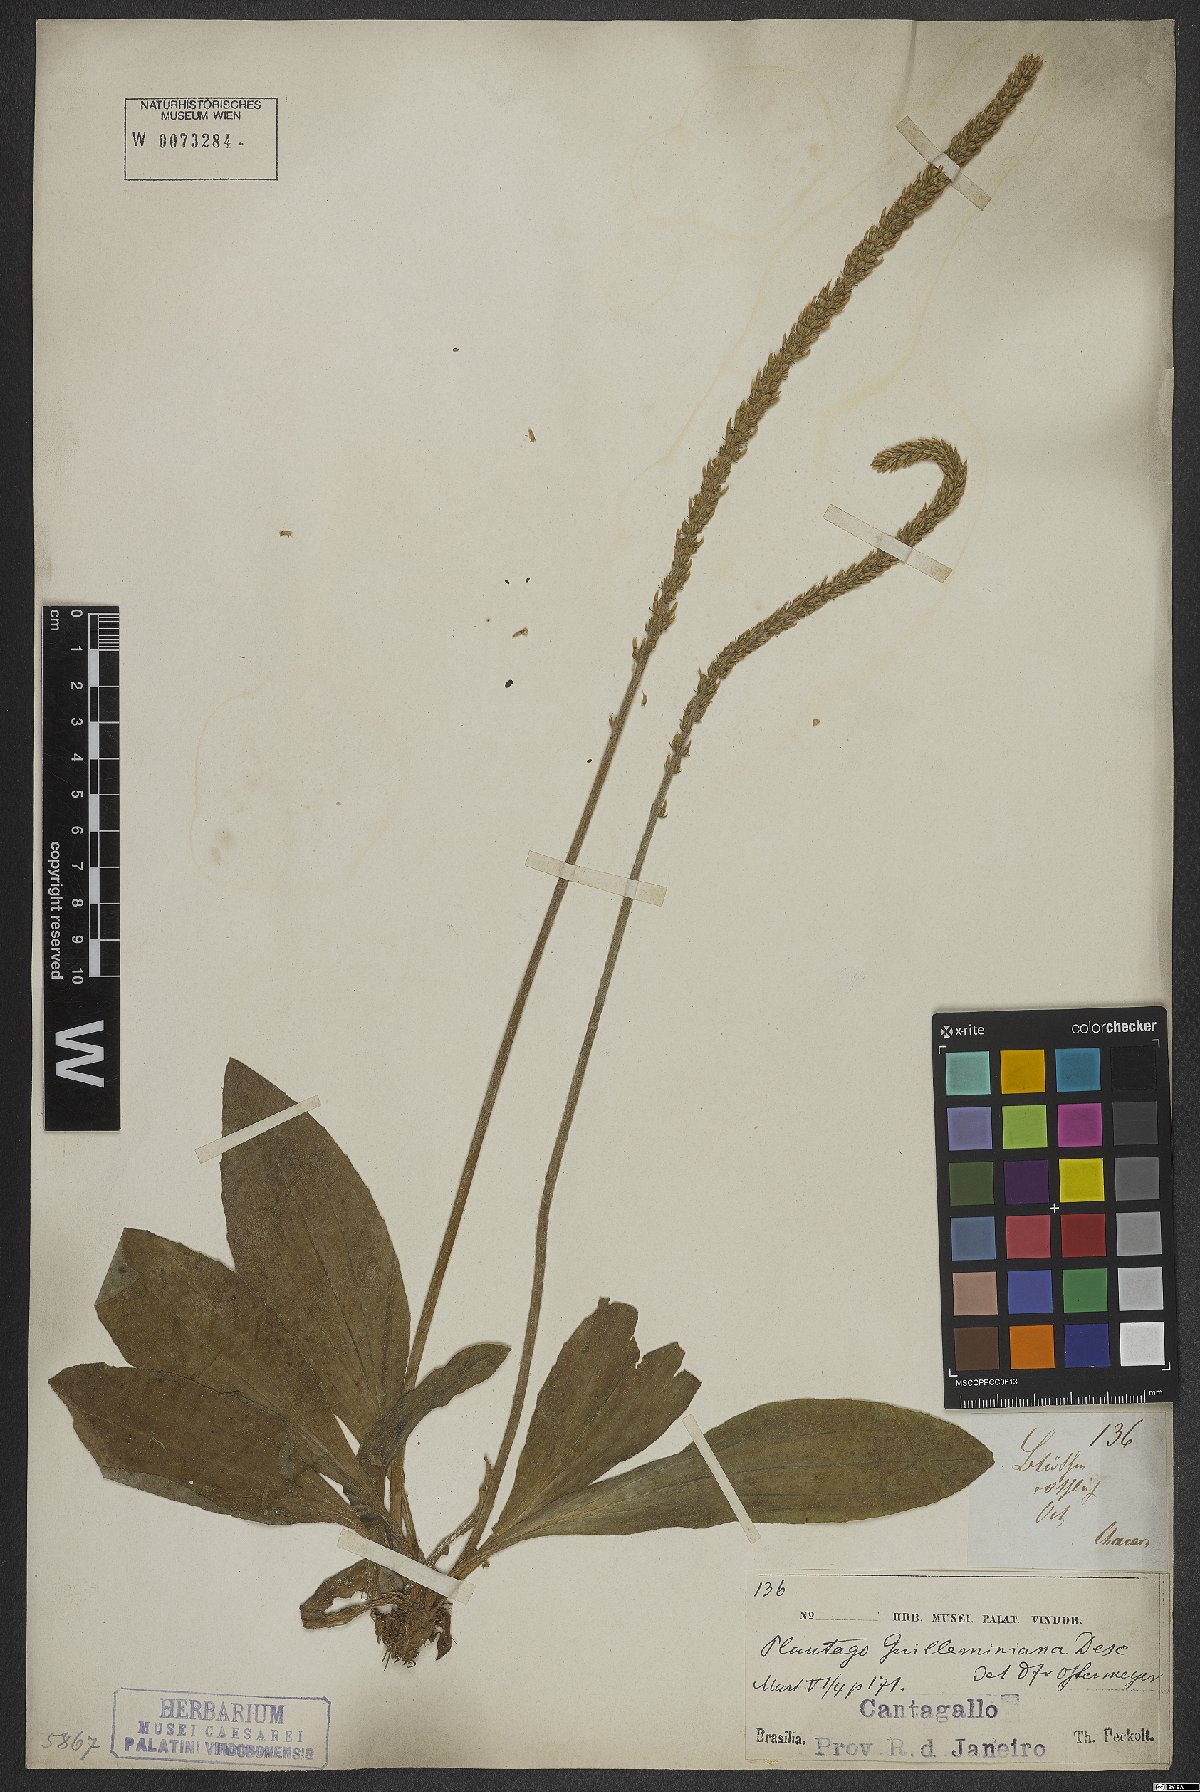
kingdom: Plantae
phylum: Tracheophyta
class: Magnoliopsida
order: Lamiales
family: Plantaginaceae
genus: Plantago
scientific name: Plantago guilleminiana
